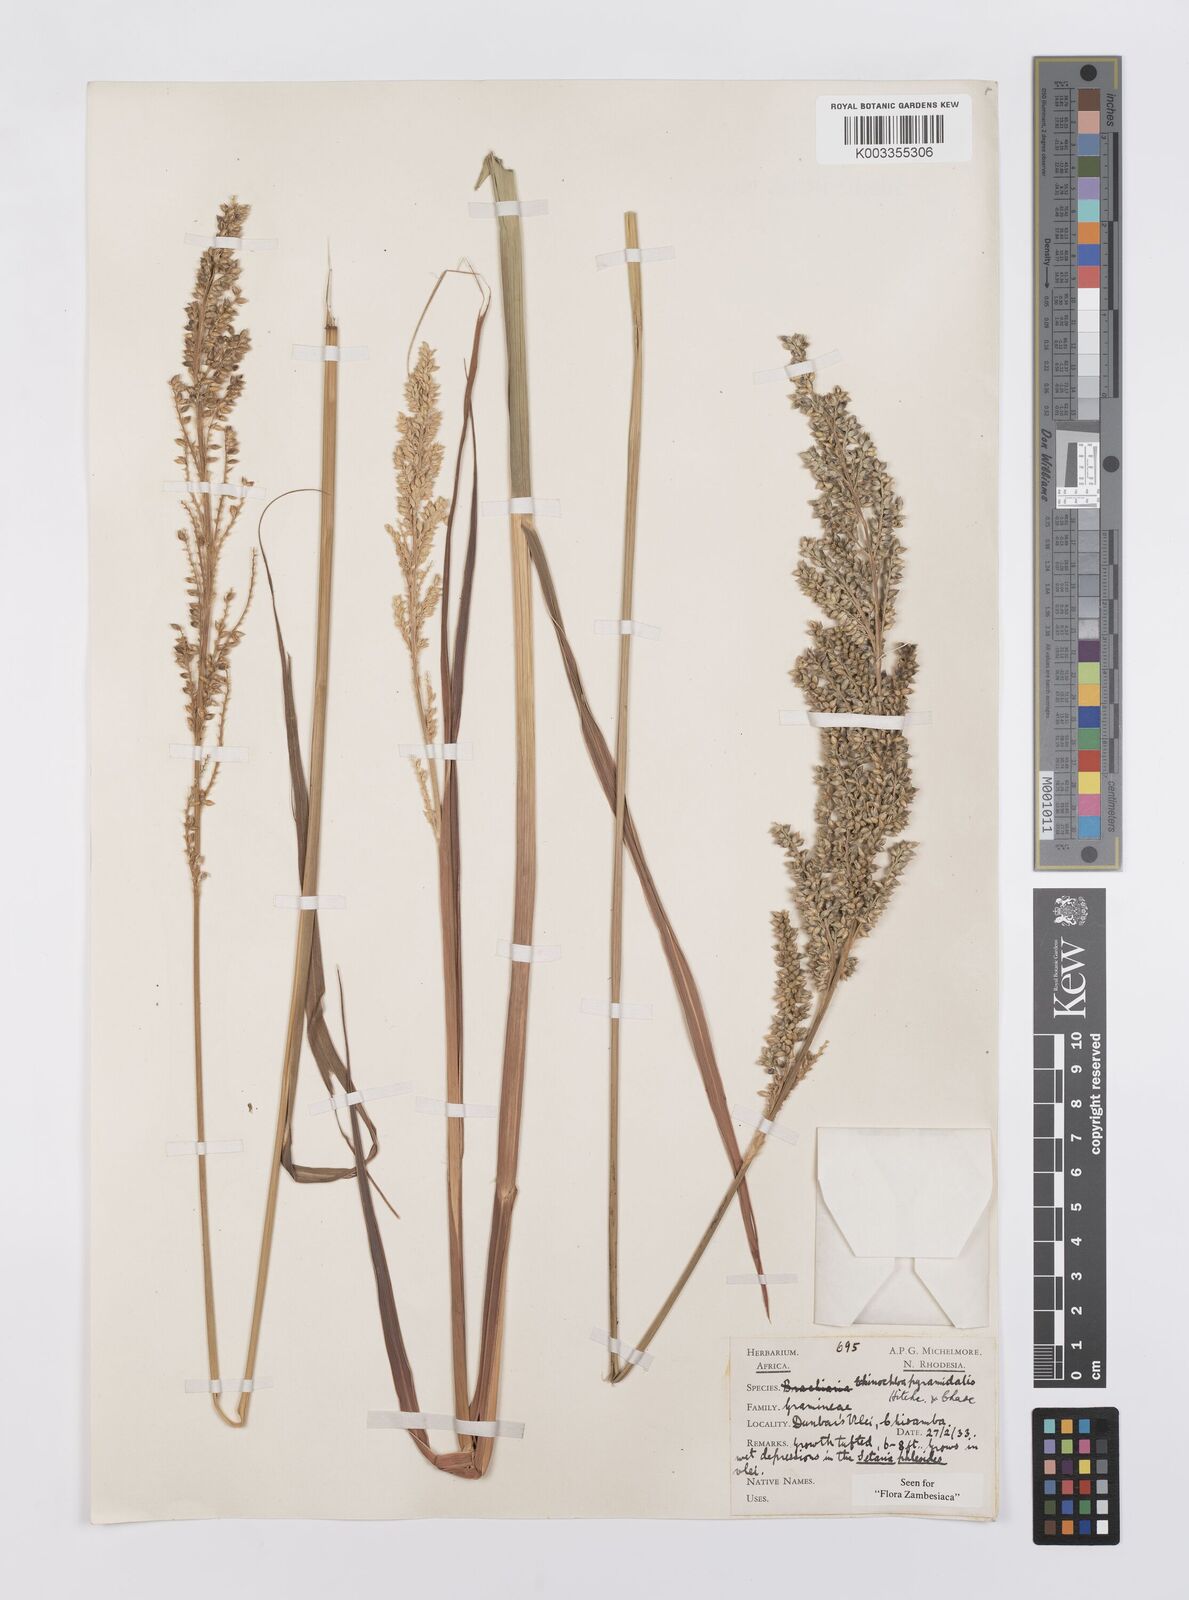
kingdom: Plantae
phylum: Tracheophyta
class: Liliopsida
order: Poales
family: Poaceae
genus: Echinochloa
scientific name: Echinochloa pyramidalis
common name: Antelope grass
